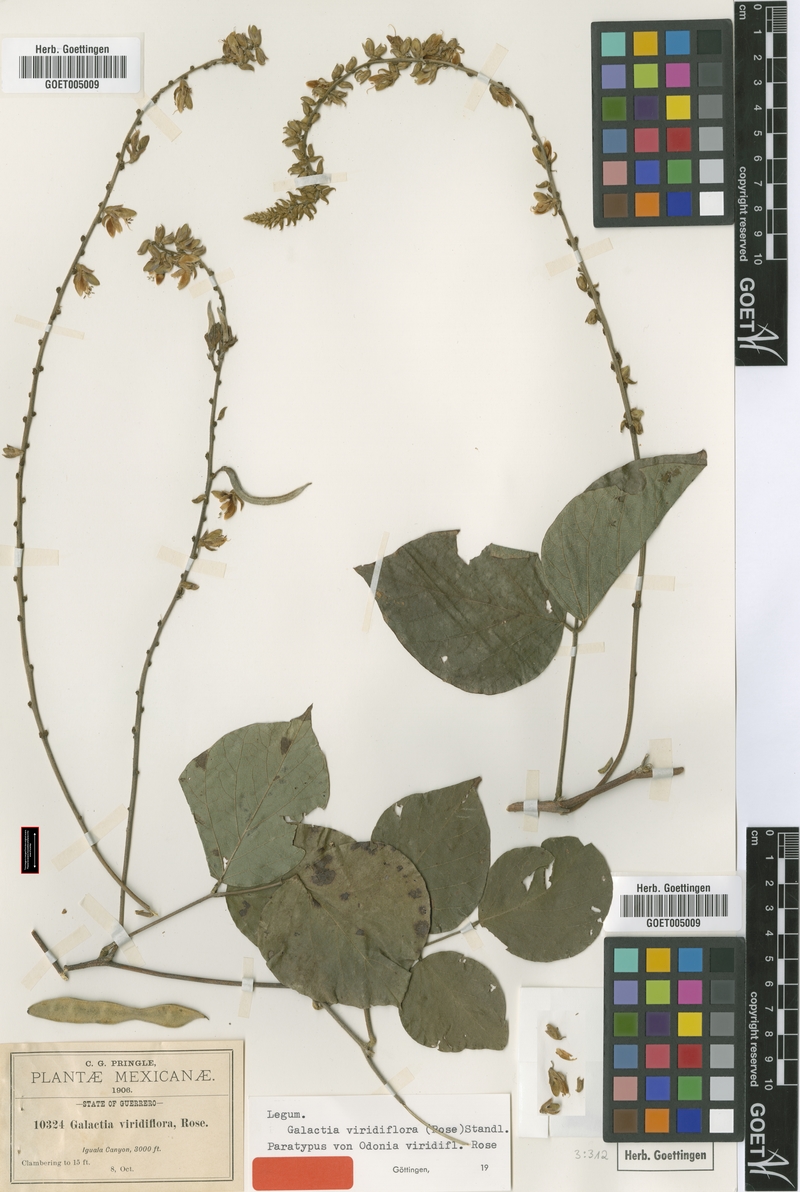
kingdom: Plantae
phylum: Tracheophyta
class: Magnoliopsida
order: Fabales
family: Fabaceae
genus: Lackeya
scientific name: Lackeya viridiflora
